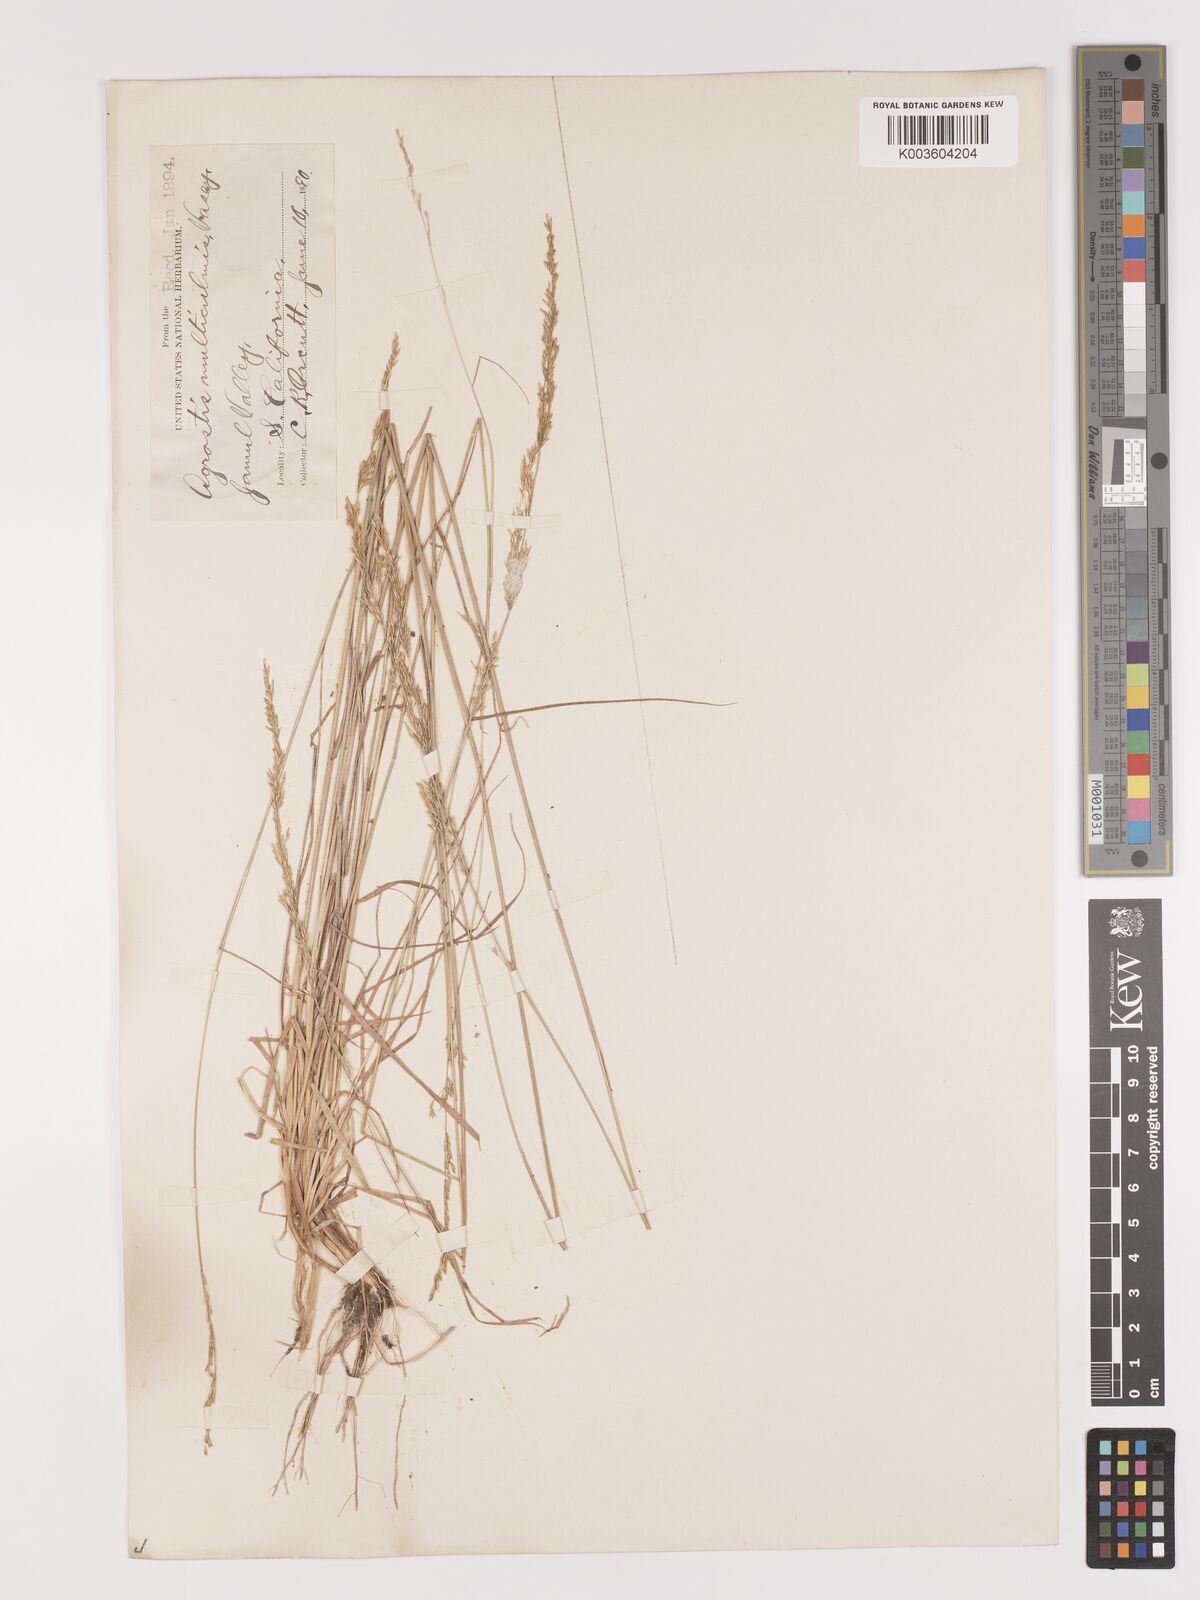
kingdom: Plantae
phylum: Tracheophyta
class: Liliopsida
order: Poales
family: Poaceae
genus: Agrostis
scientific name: Agrostis pallens
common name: Dune bent
